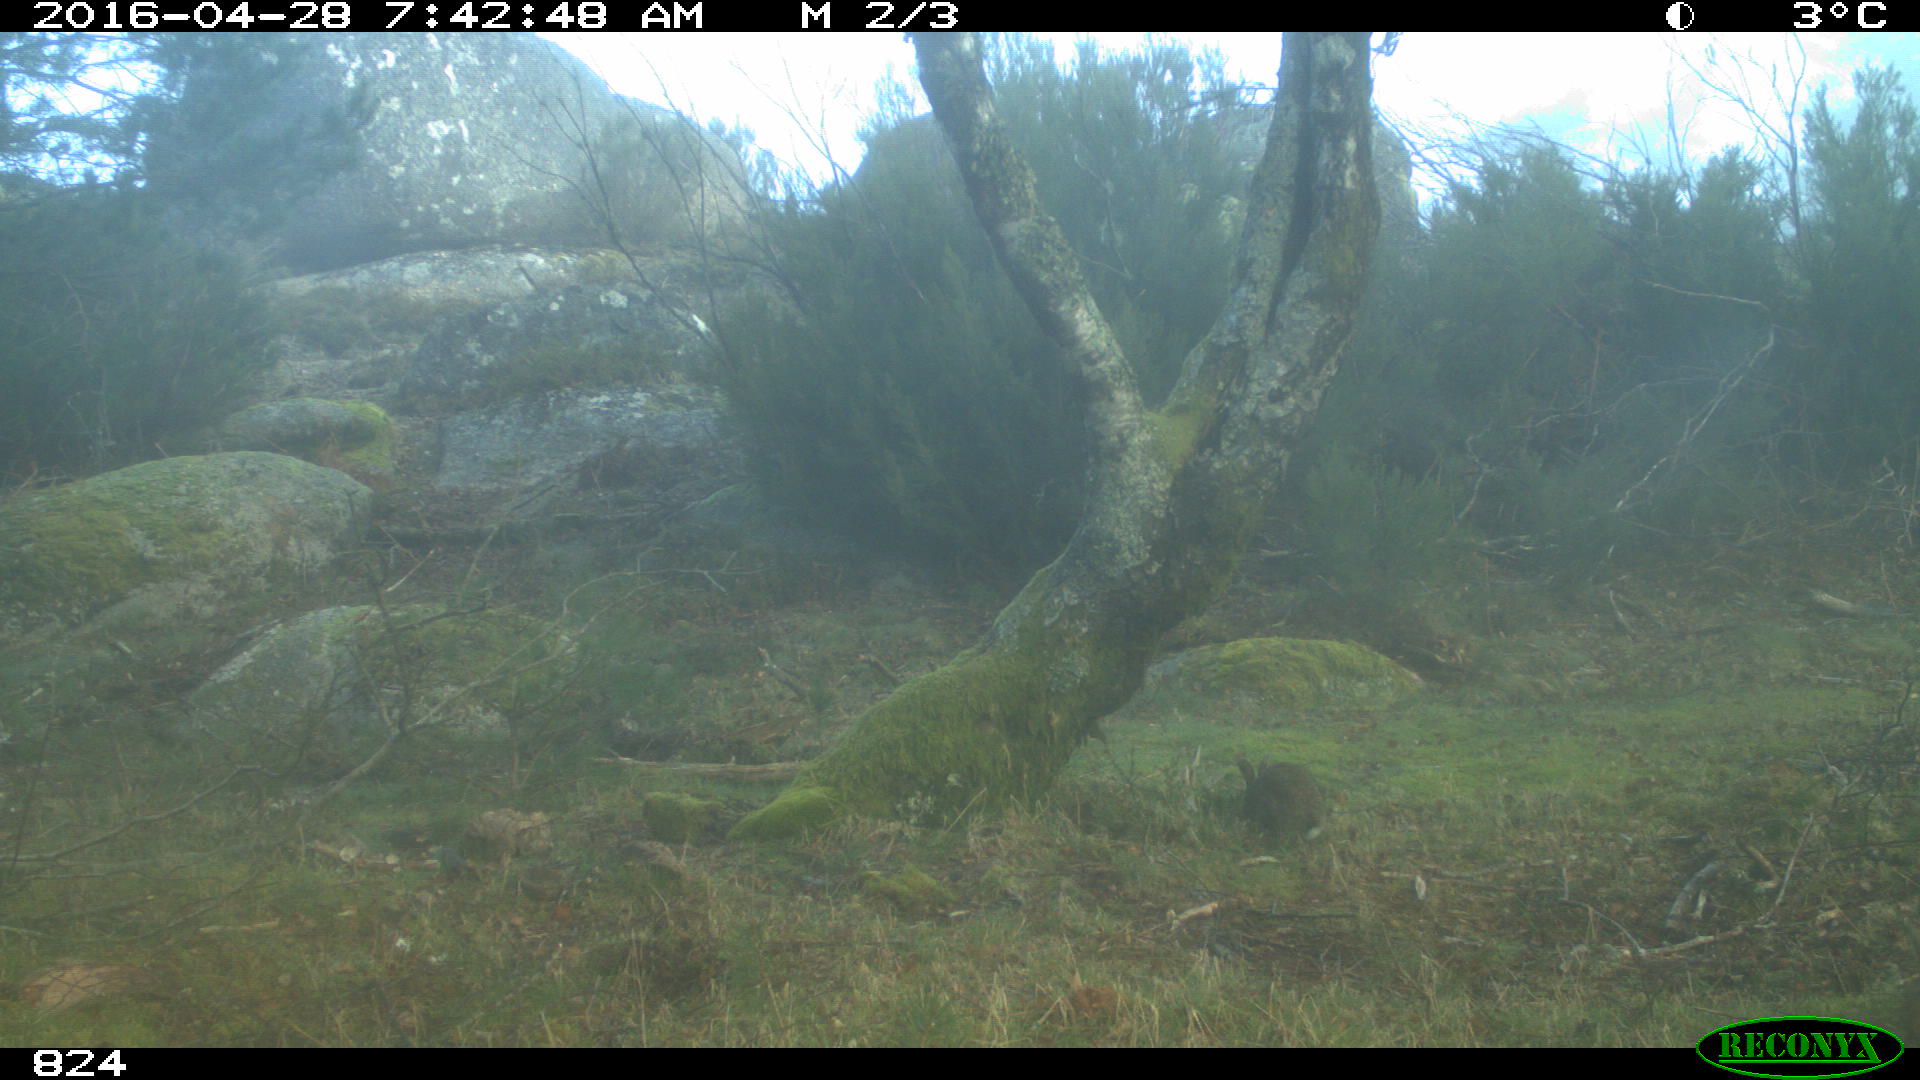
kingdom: Animalia
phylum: Chordata
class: Mammalia
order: Lagomorpha
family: Leporidae
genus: Oryctolagus
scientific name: Oryctolagus cuniculus
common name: European rabbit
